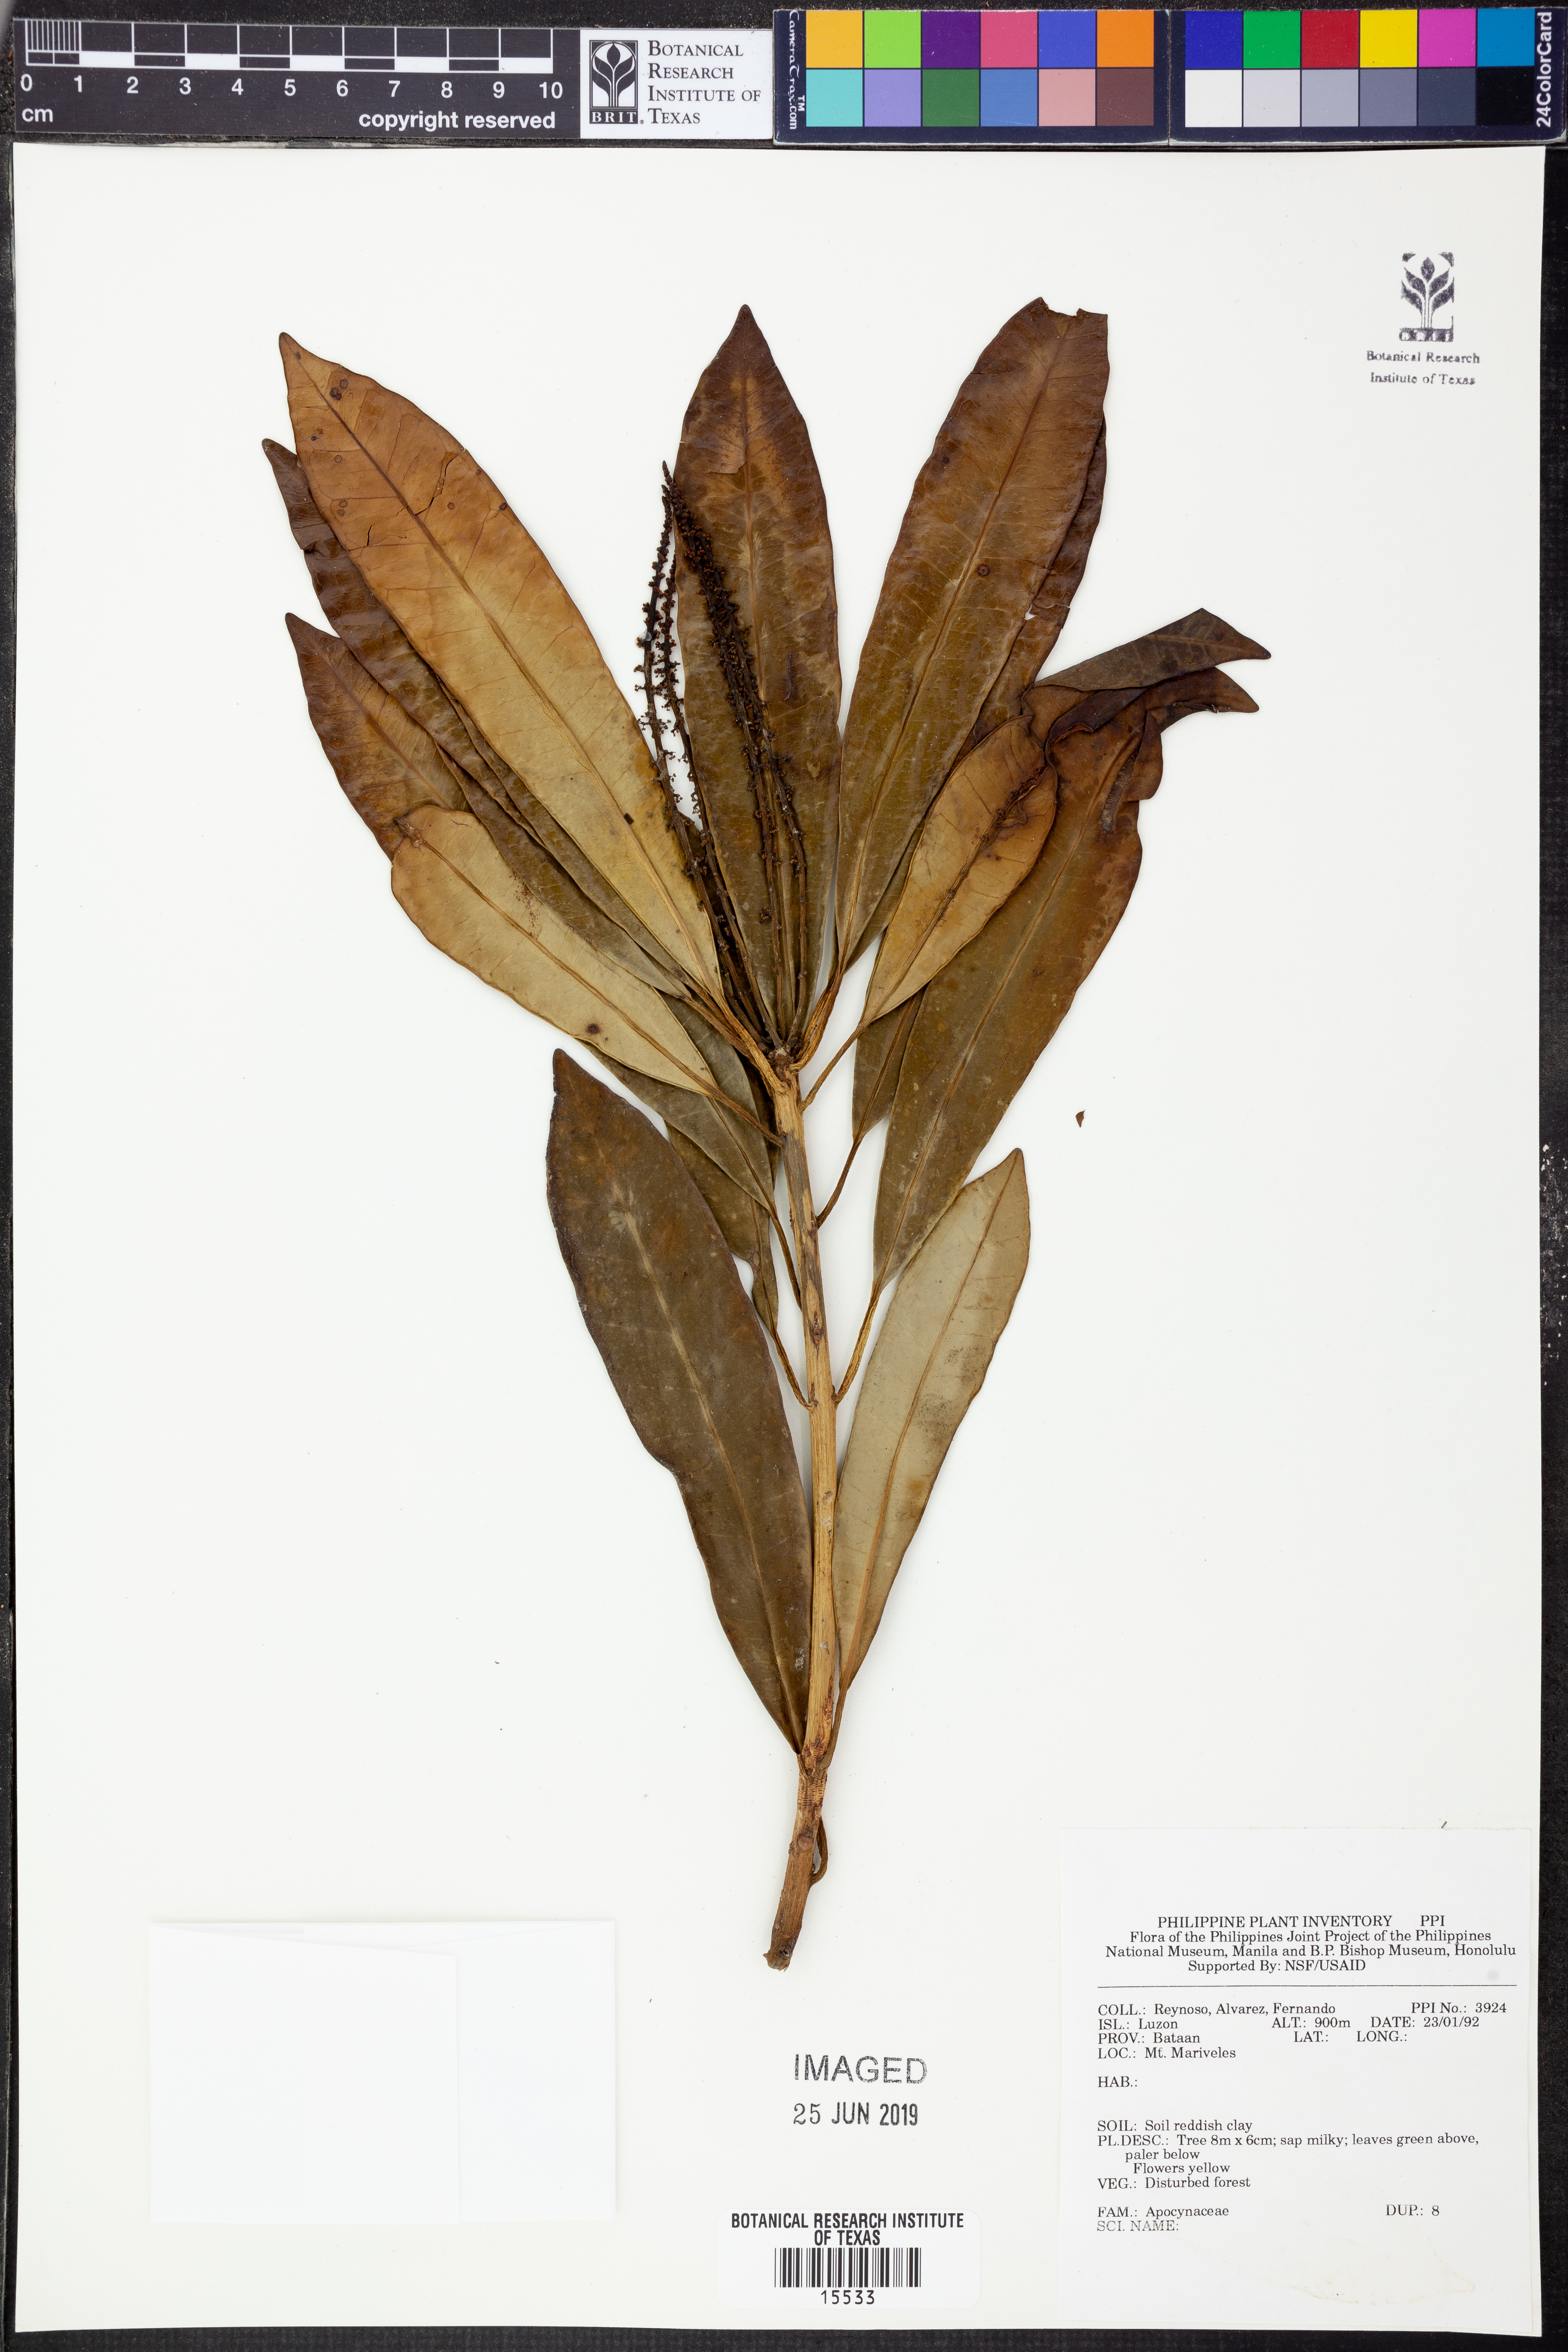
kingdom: Plantae
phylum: Tracheophyta
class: Magnoliopsida
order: Gentianales
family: Apocynaceae
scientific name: Apocynaceae
